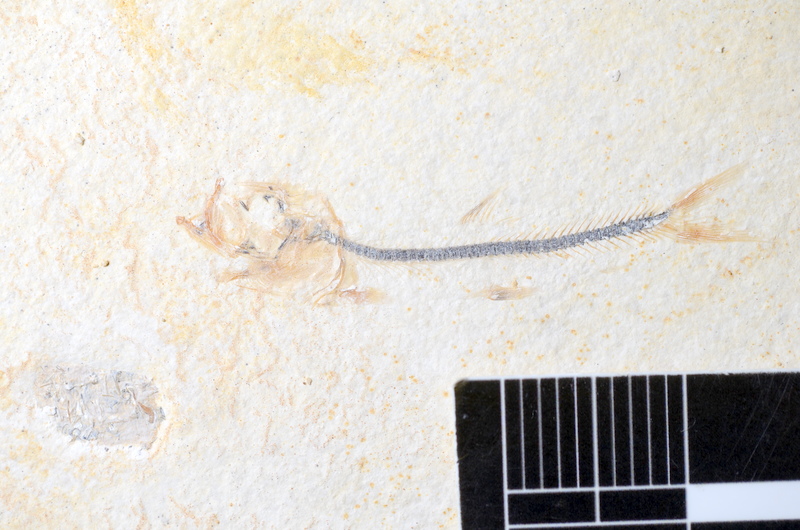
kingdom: Animalia
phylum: Chordata
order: Salmoniformes
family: Orthogonikleithridae
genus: Orthogonikleithrus
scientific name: Orthogonikleithrus hoelli
